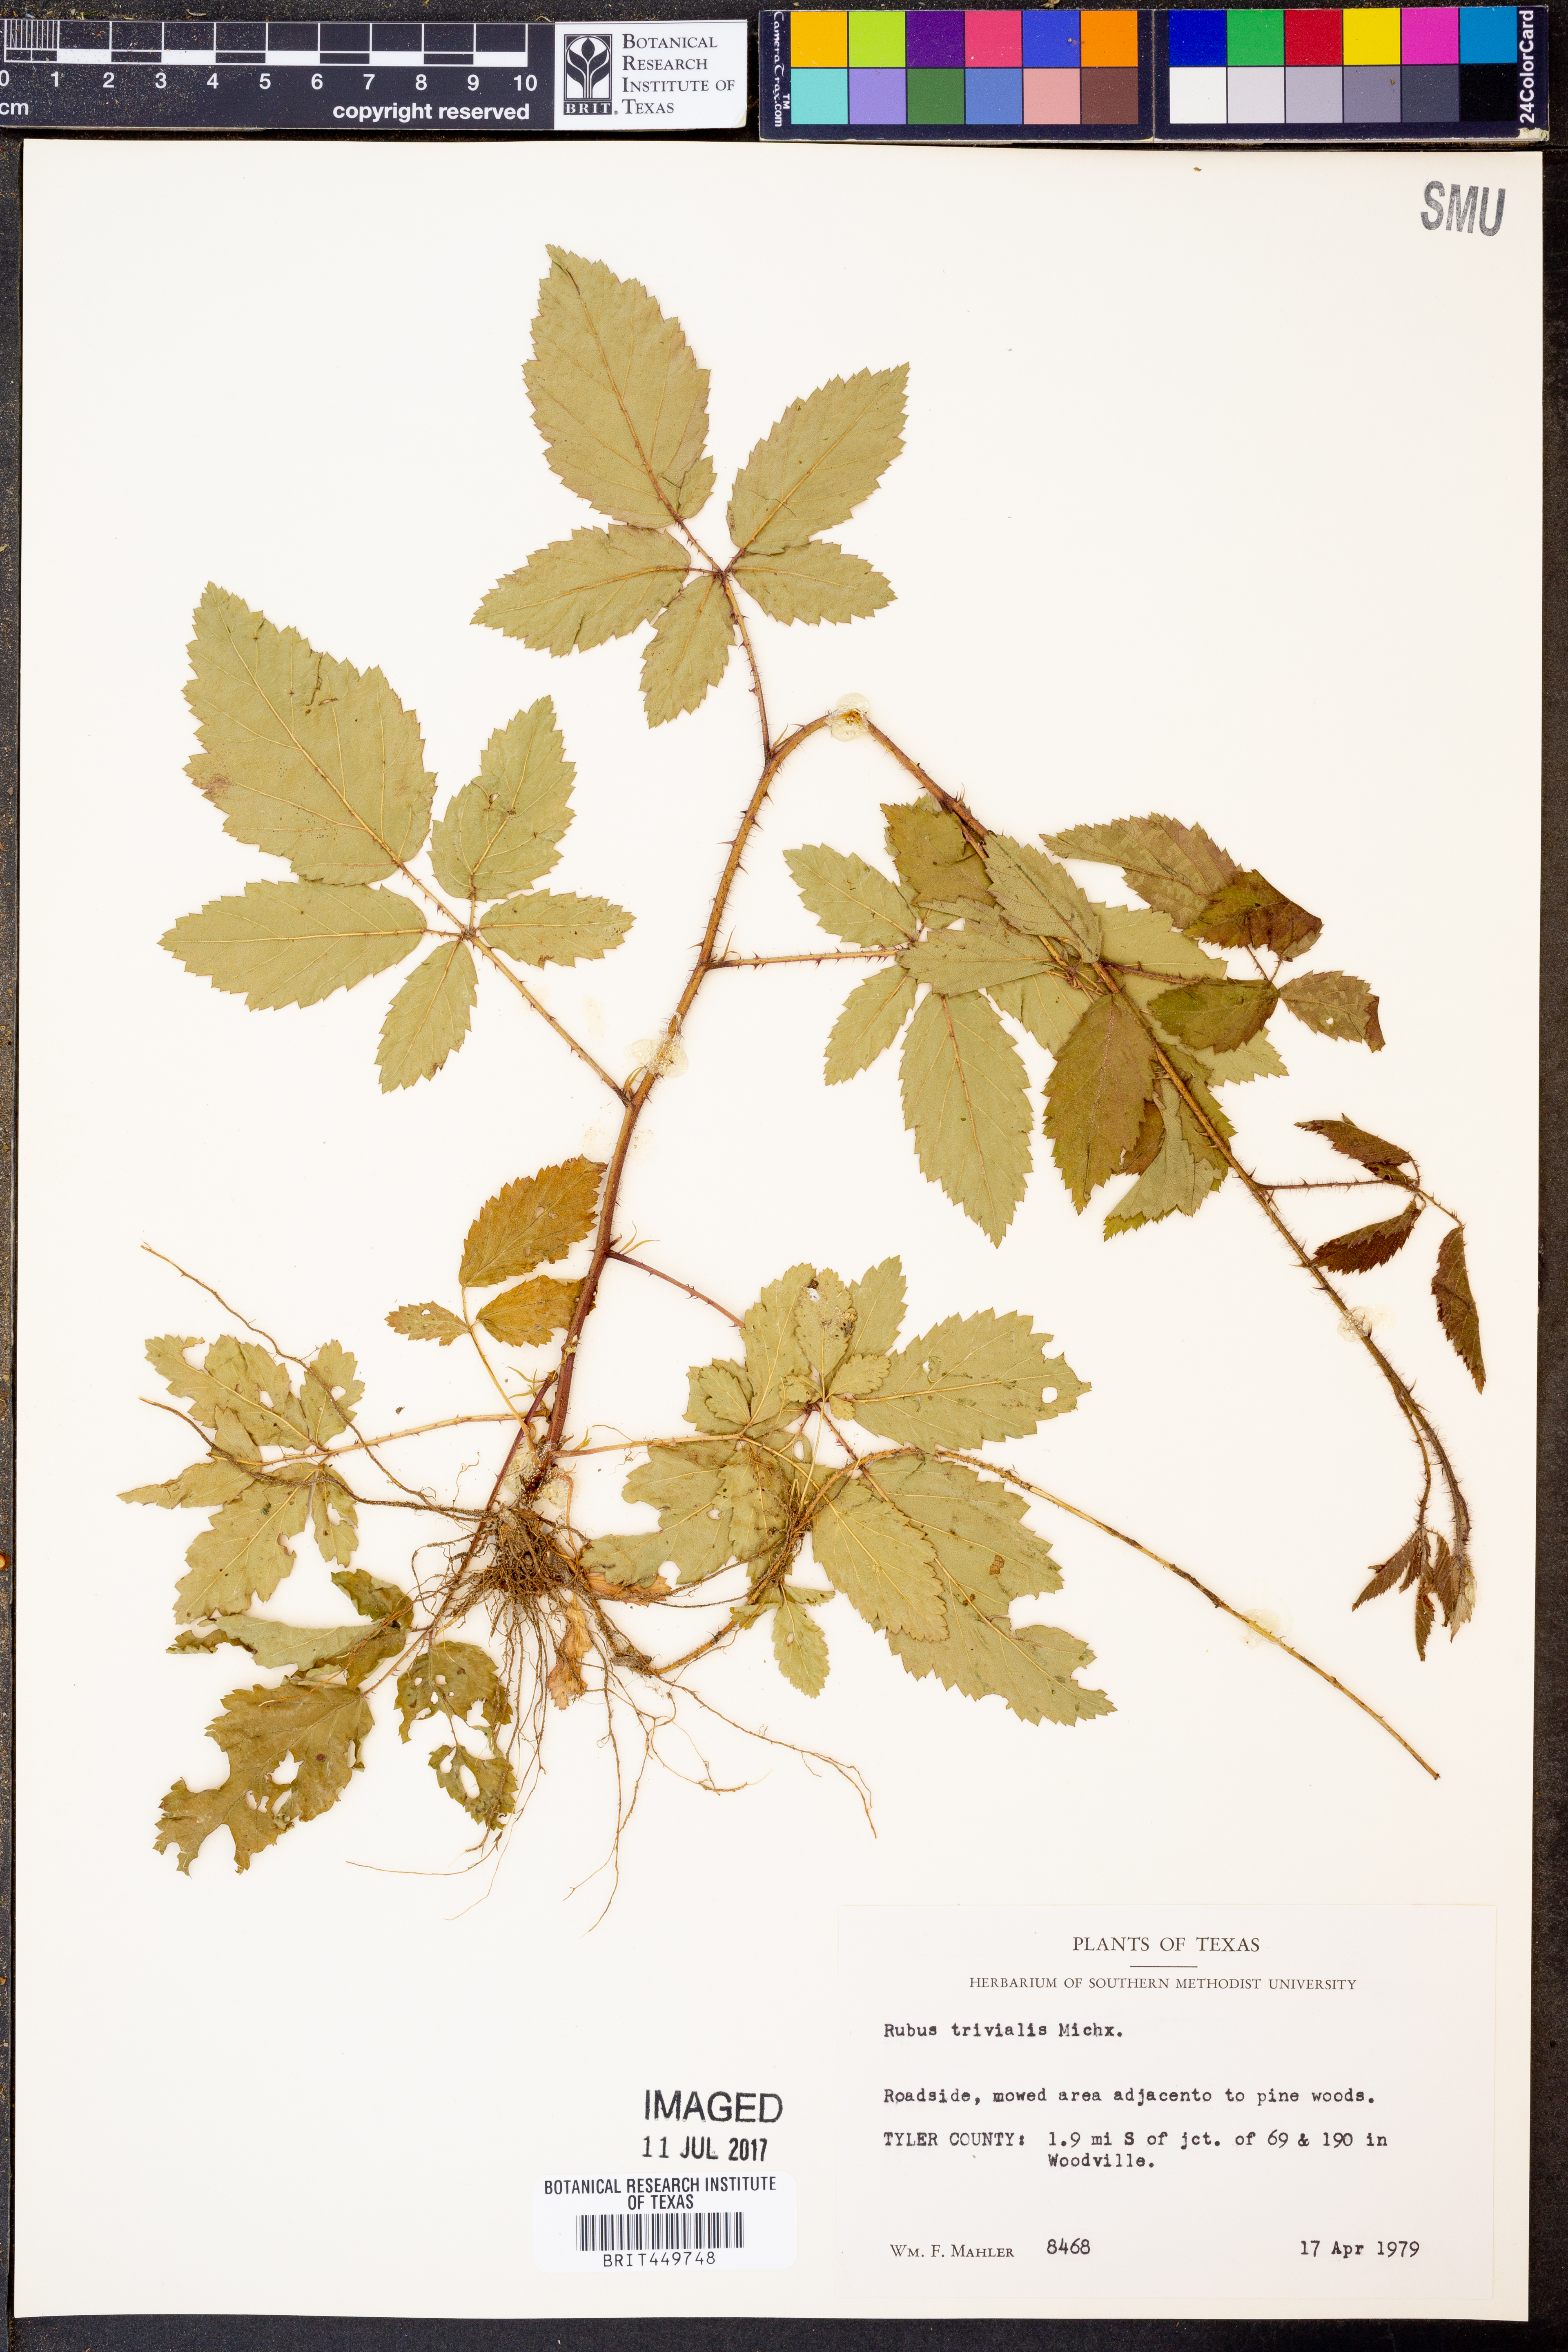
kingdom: Plantae
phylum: Tracheophyta
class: Magnoliopsida
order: Rosales
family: Rosaceae
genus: Rubus
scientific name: Rubus trivialis
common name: Southern dewberry
